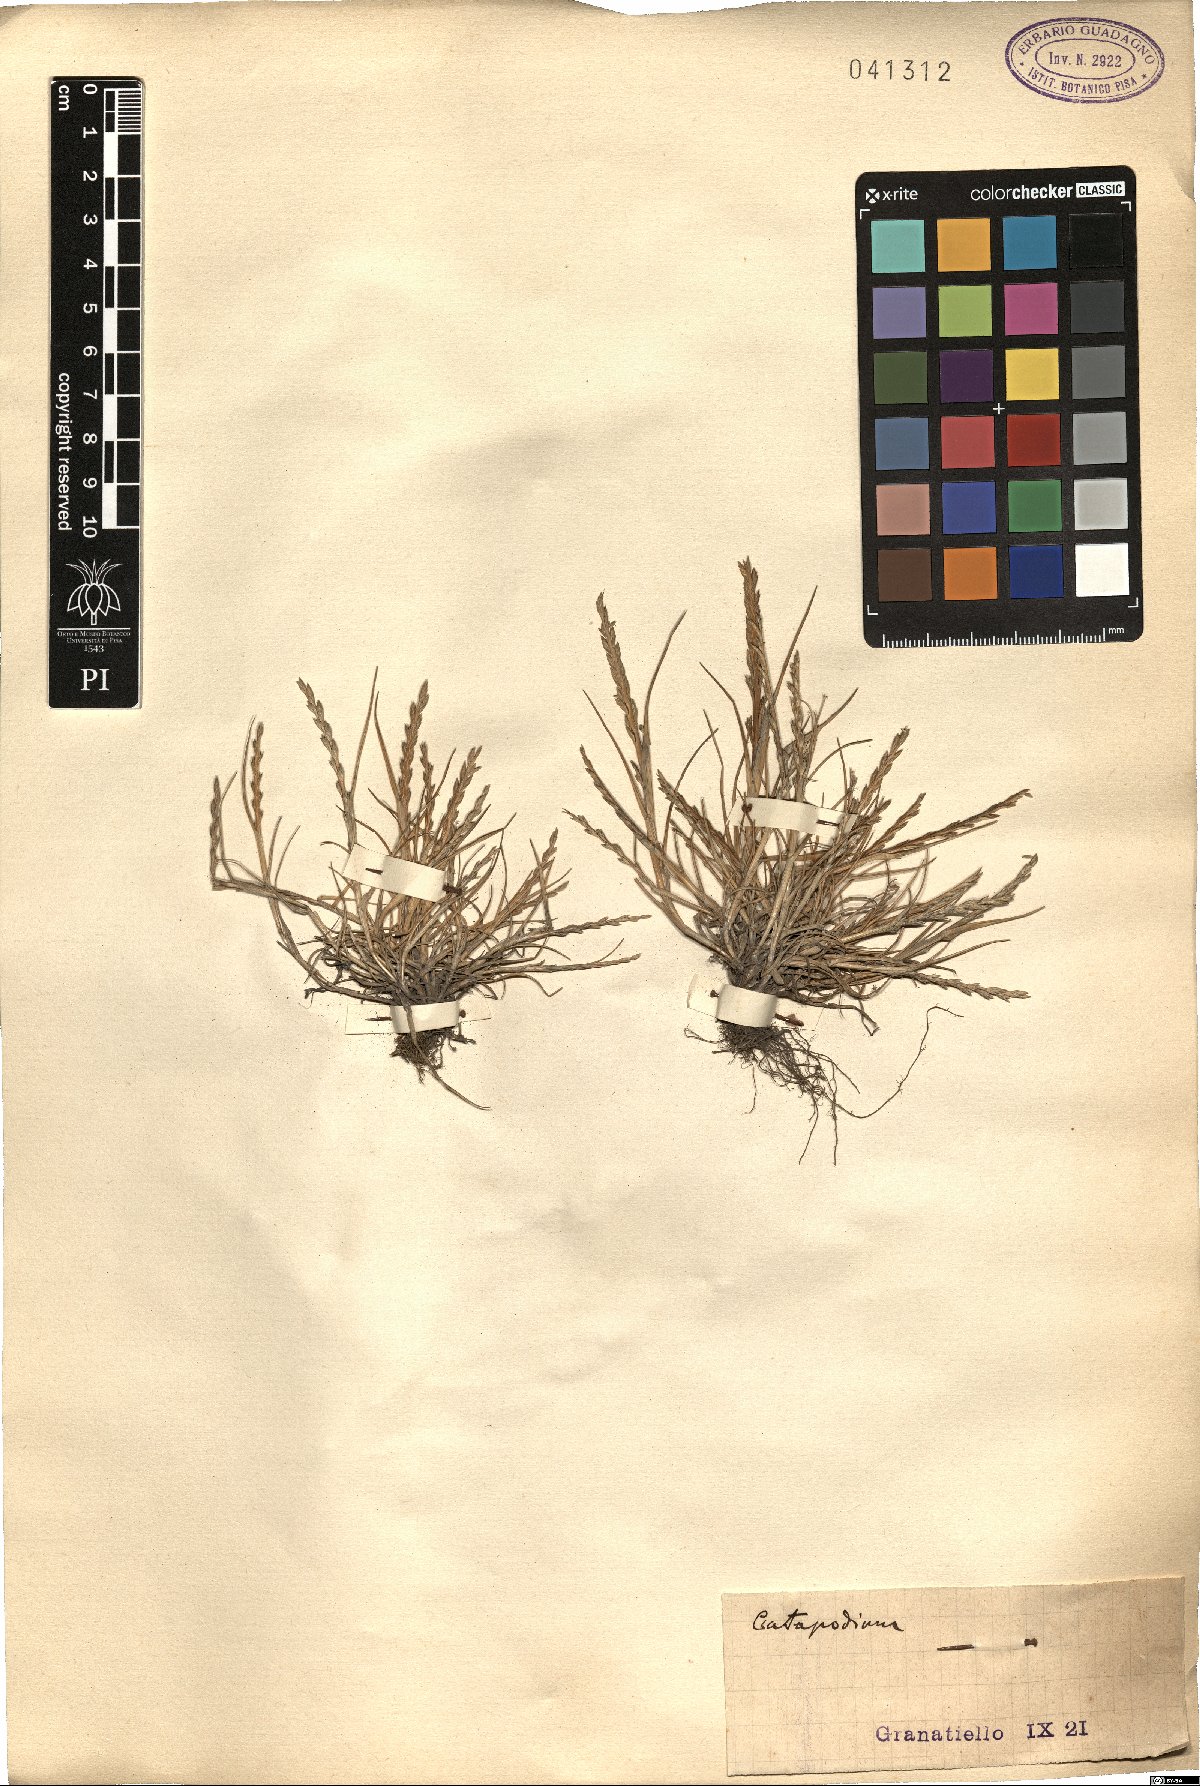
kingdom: Plantae
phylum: Tracheophyta
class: Liliopsida
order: Poales
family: Poaceae
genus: Catapodium
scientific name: Catapodium
